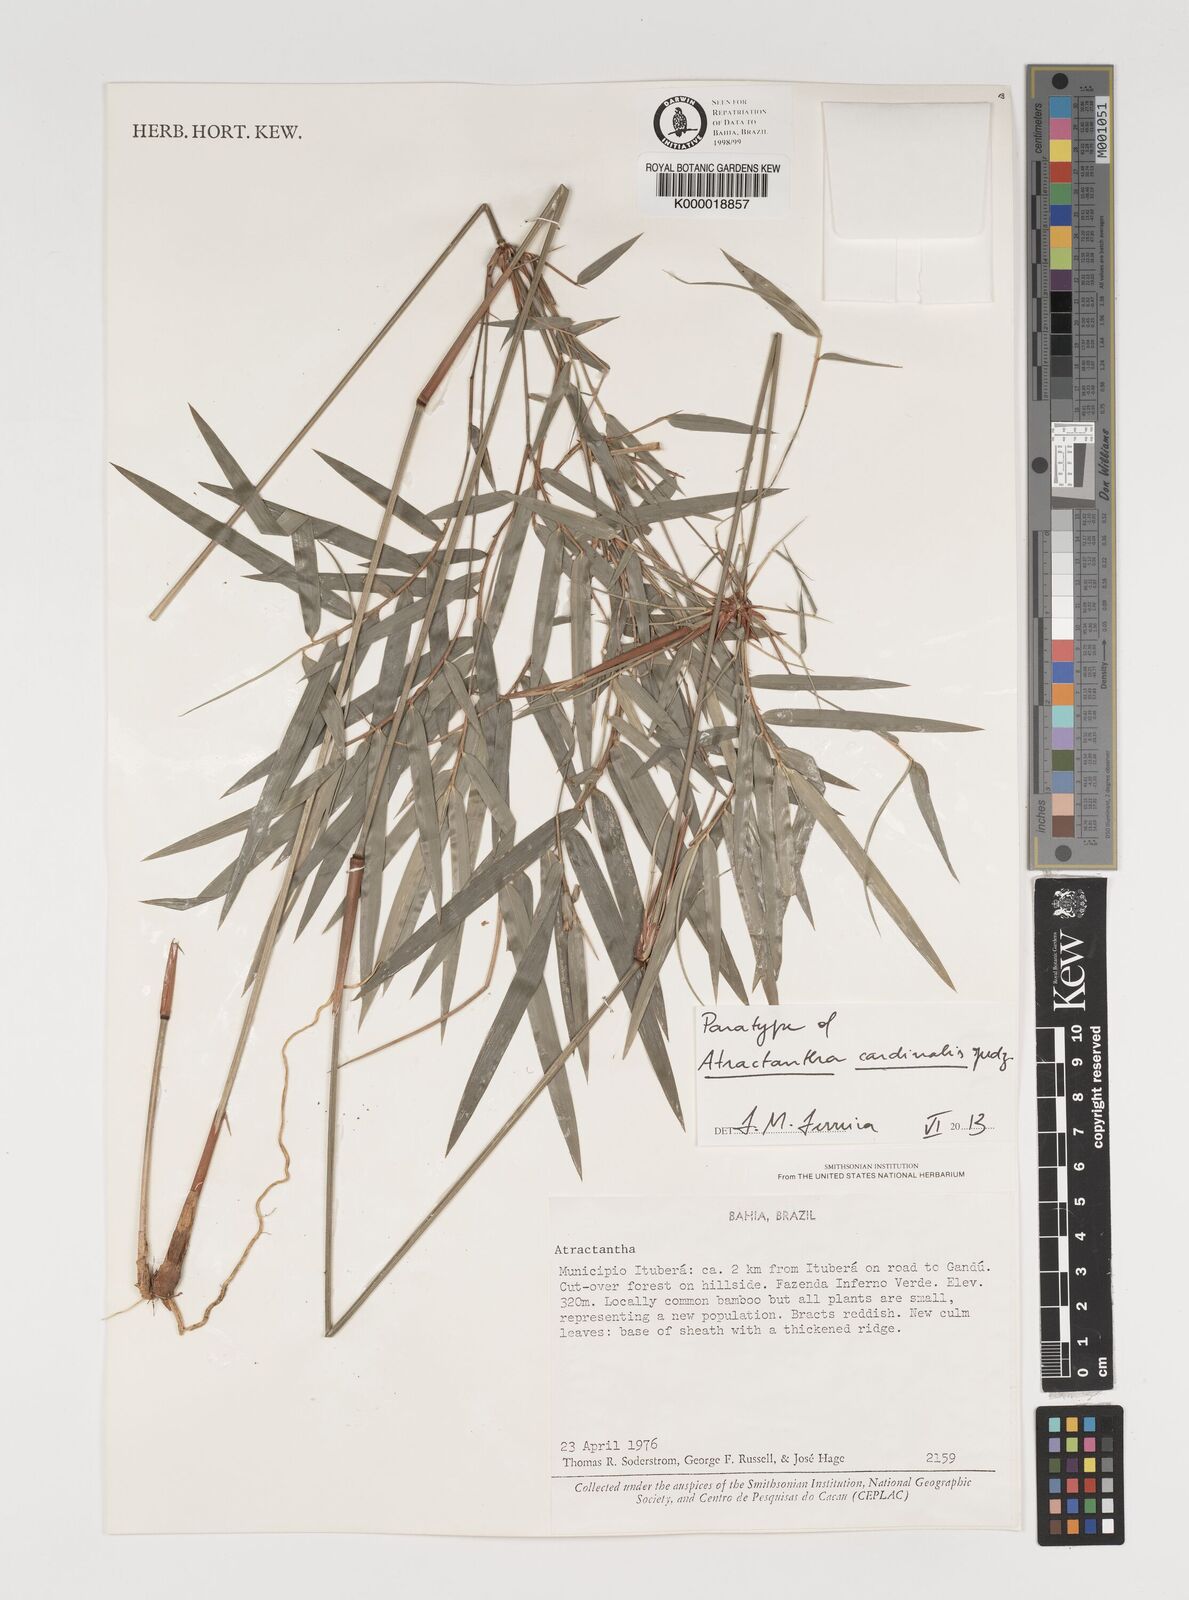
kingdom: Plantae
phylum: Tracheophyta
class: Liliopsida
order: Poales
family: Poaceae
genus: Atractantha
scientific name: Atractantha cardinalis
